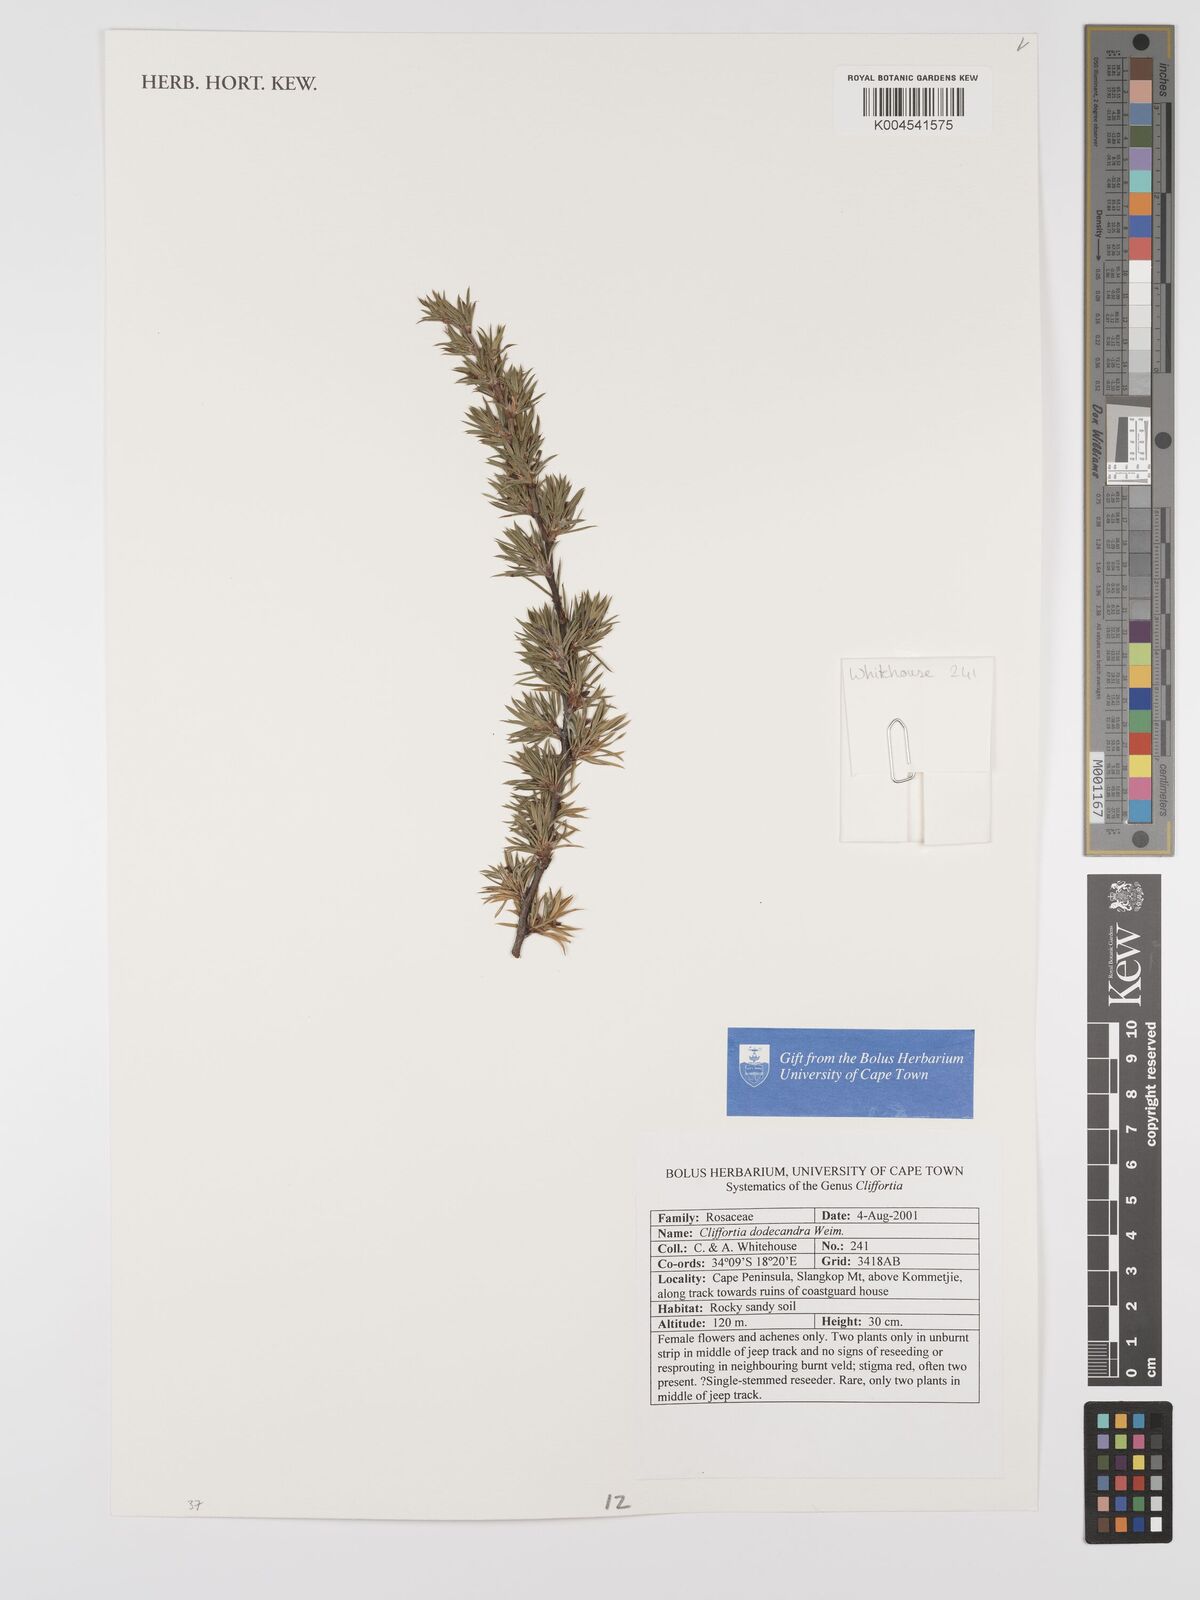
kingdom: Plantae
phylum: Tracheophyta
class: Magnoliopsida
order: Rosales
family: Rosaceae
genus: Cliffortia
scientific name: Cliffortia dodecandra
